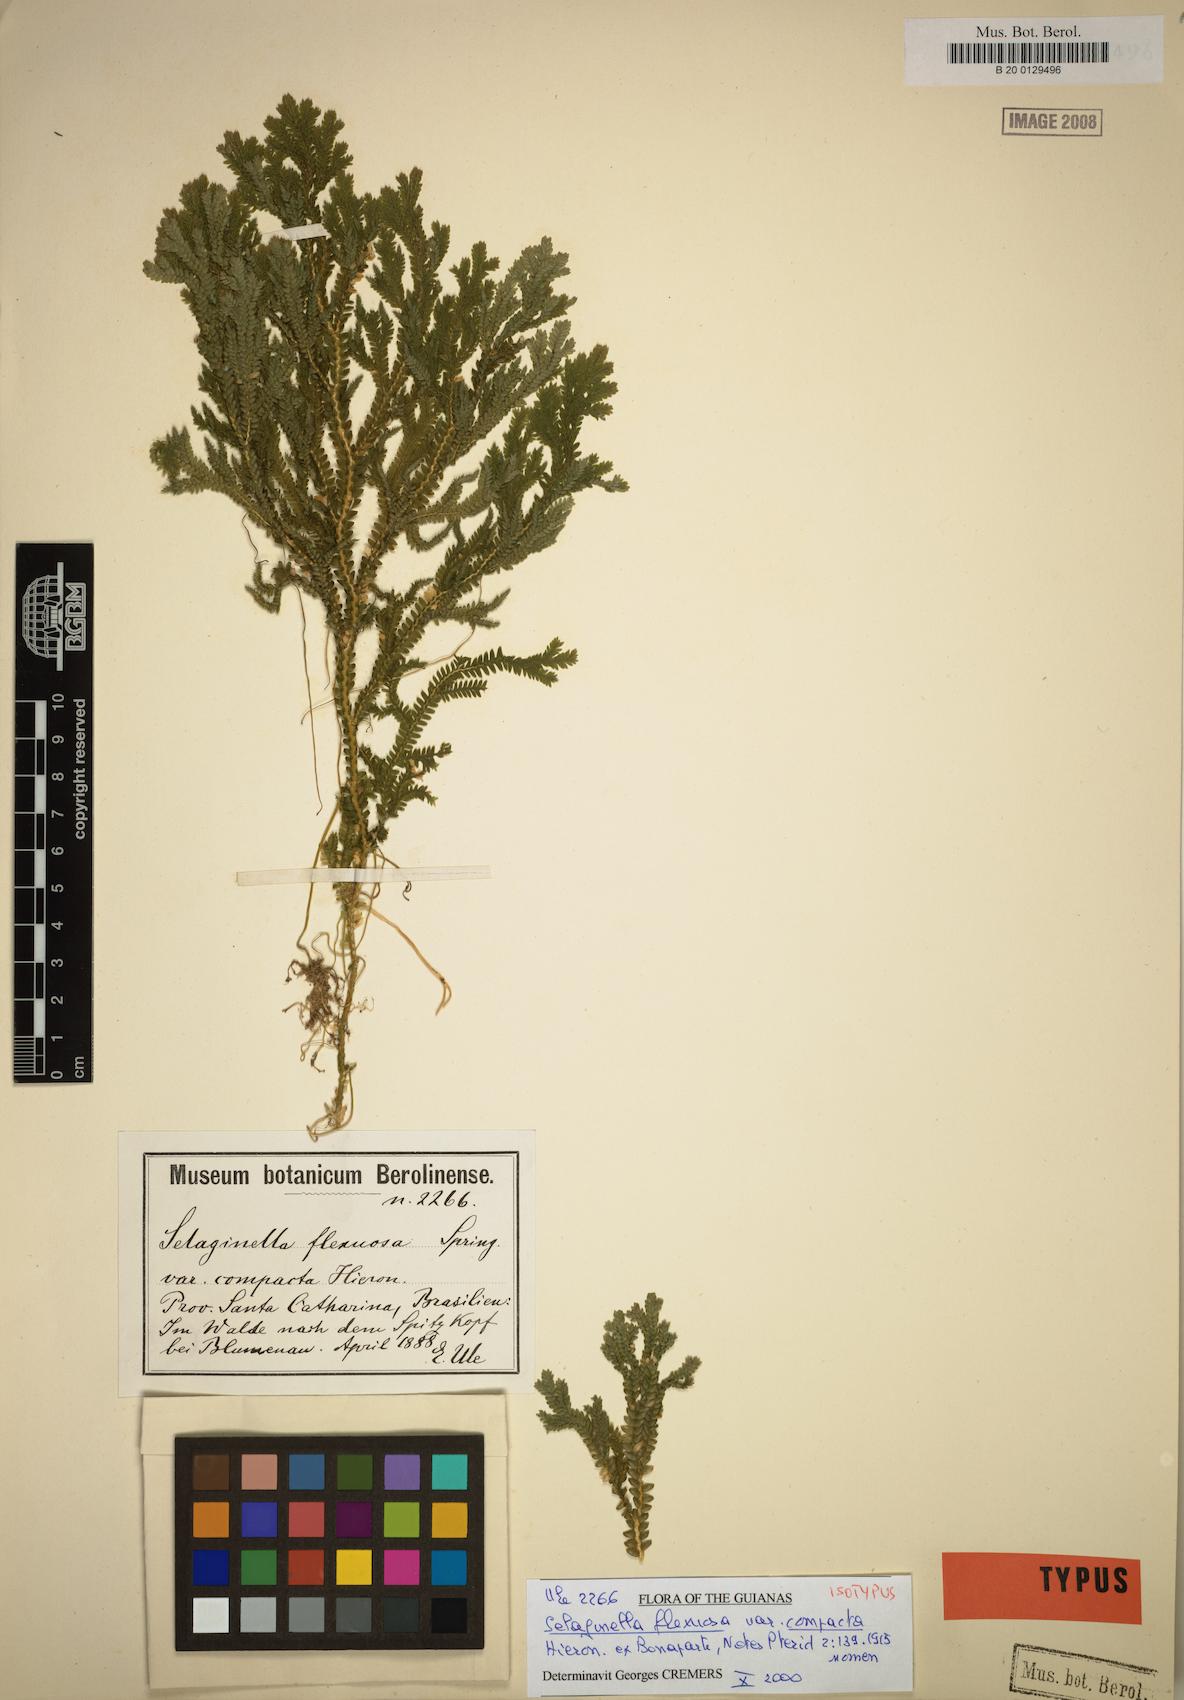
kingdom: Plantae
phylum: Tracheophyta
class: Lycopodiopsida
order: Selaginellales
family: Selaginellaceae
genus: Selaginella
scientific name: Selaginella flexuosa
